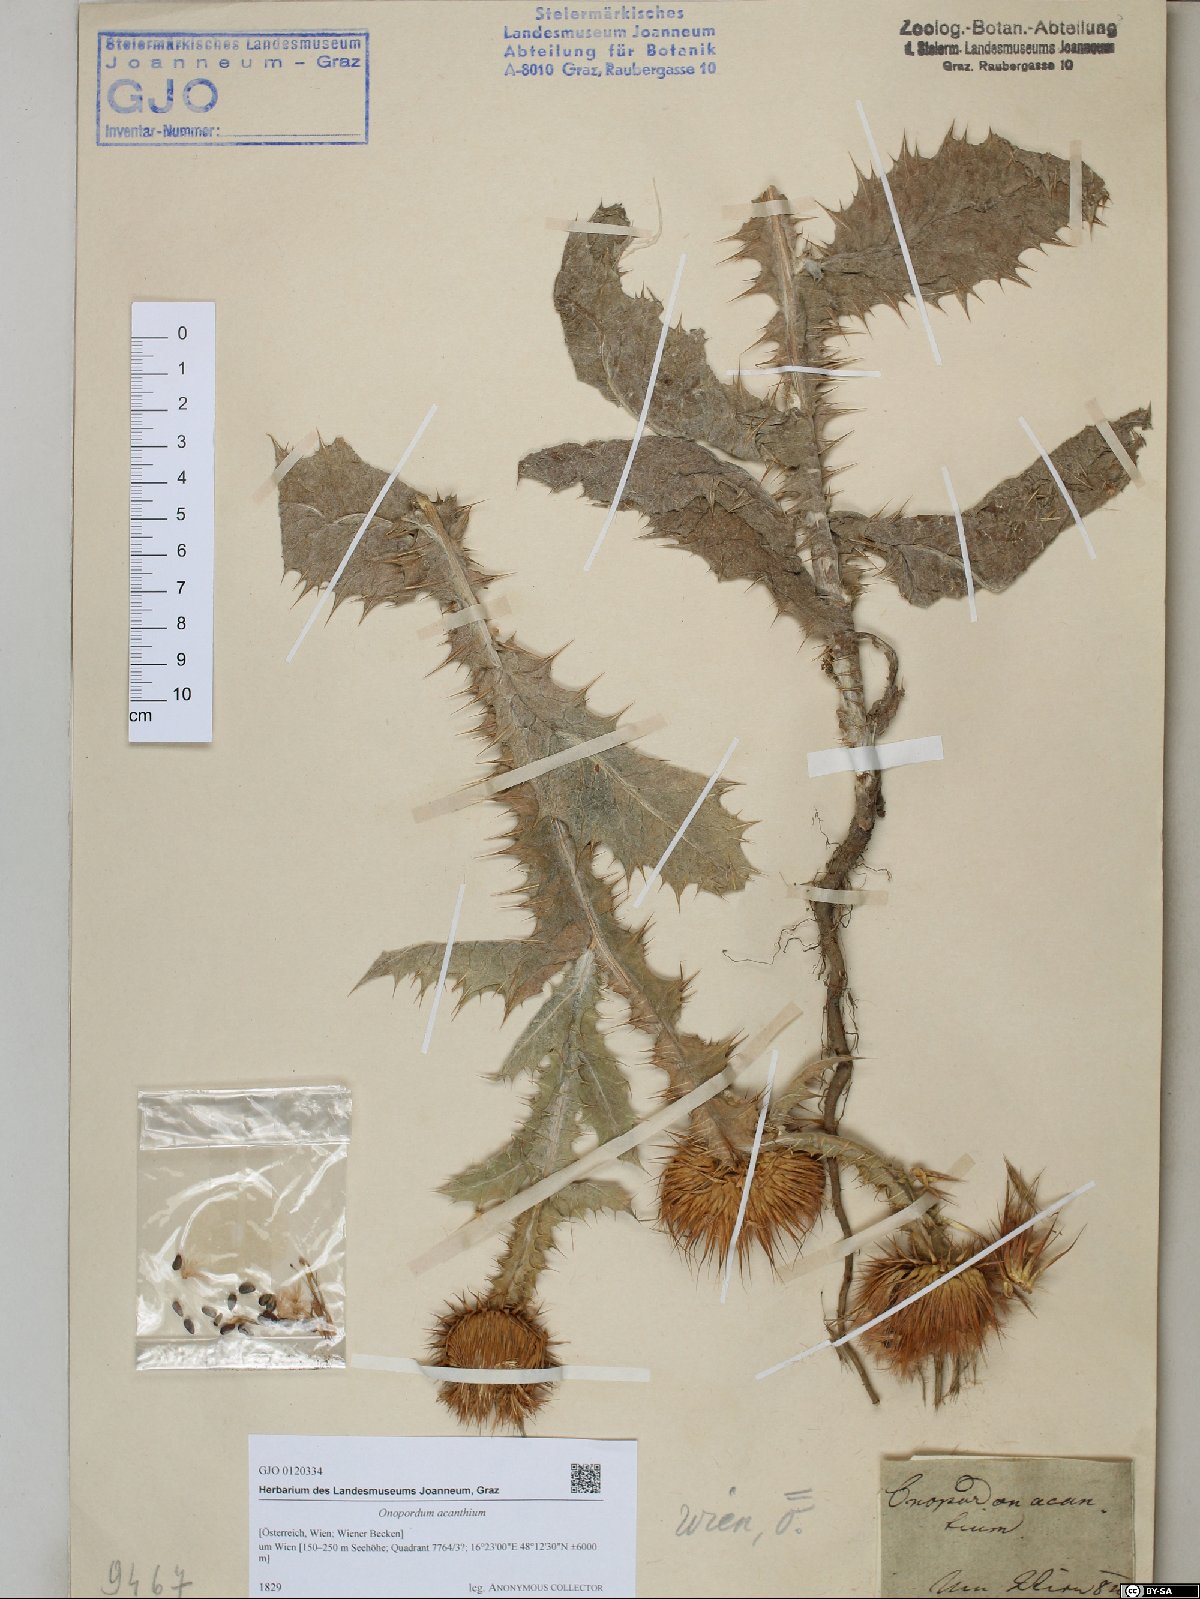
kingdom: Plantae
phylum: Tracheophyta
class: Magnoliopsida
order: Asterales
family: Asteraceae
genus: Onopordum
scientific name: Onopordum acanthium
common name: Scotch thistle
